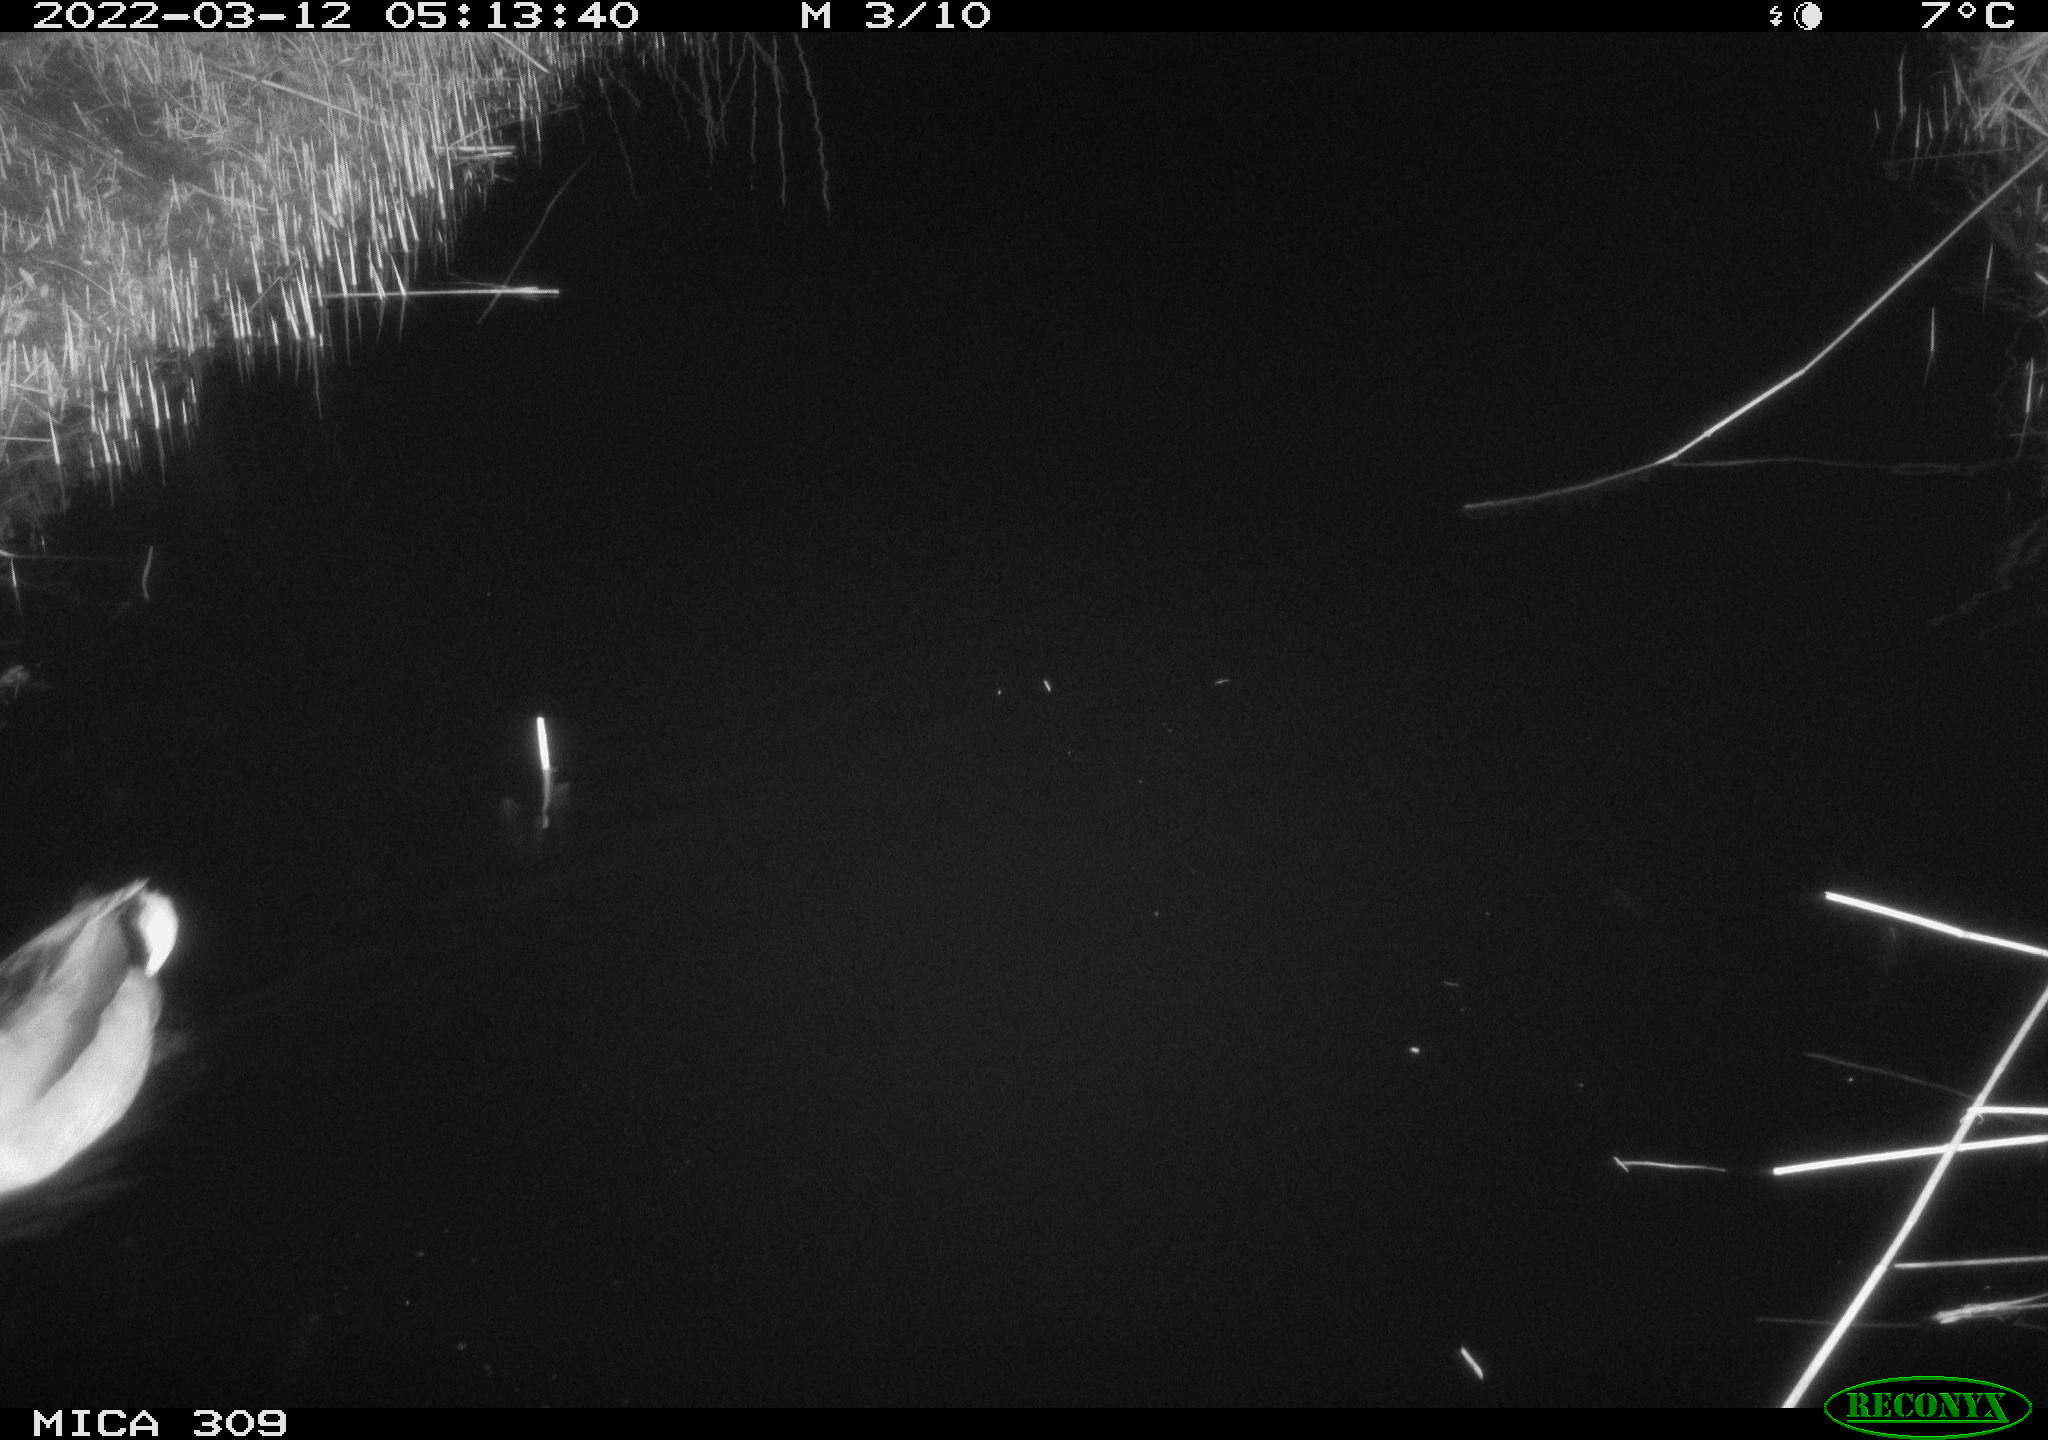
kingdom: Animalia
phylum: Chordata
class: Aves
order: Anseriformes
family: Anatidae
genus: Anas
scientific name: Anas platyrhynchos
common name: Mallard
